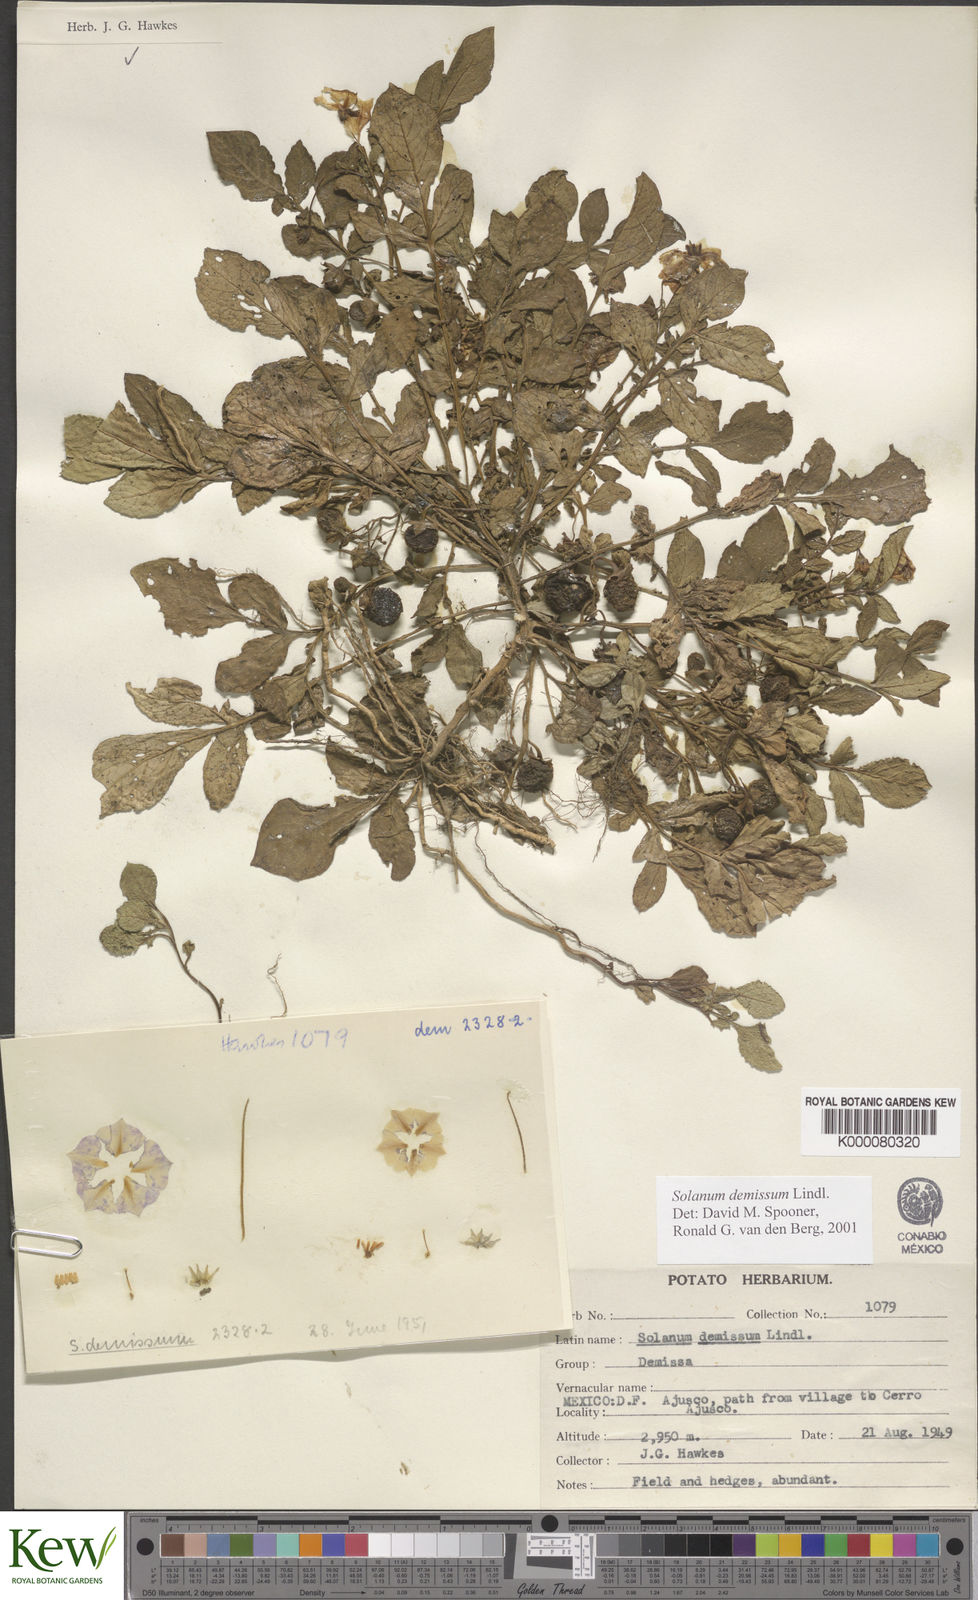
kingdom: Plantae
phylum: Tracheophyta
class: Magnoliopsida
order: Solanales
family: Solanaceae
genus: Solanum
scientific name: Solanum demissum
